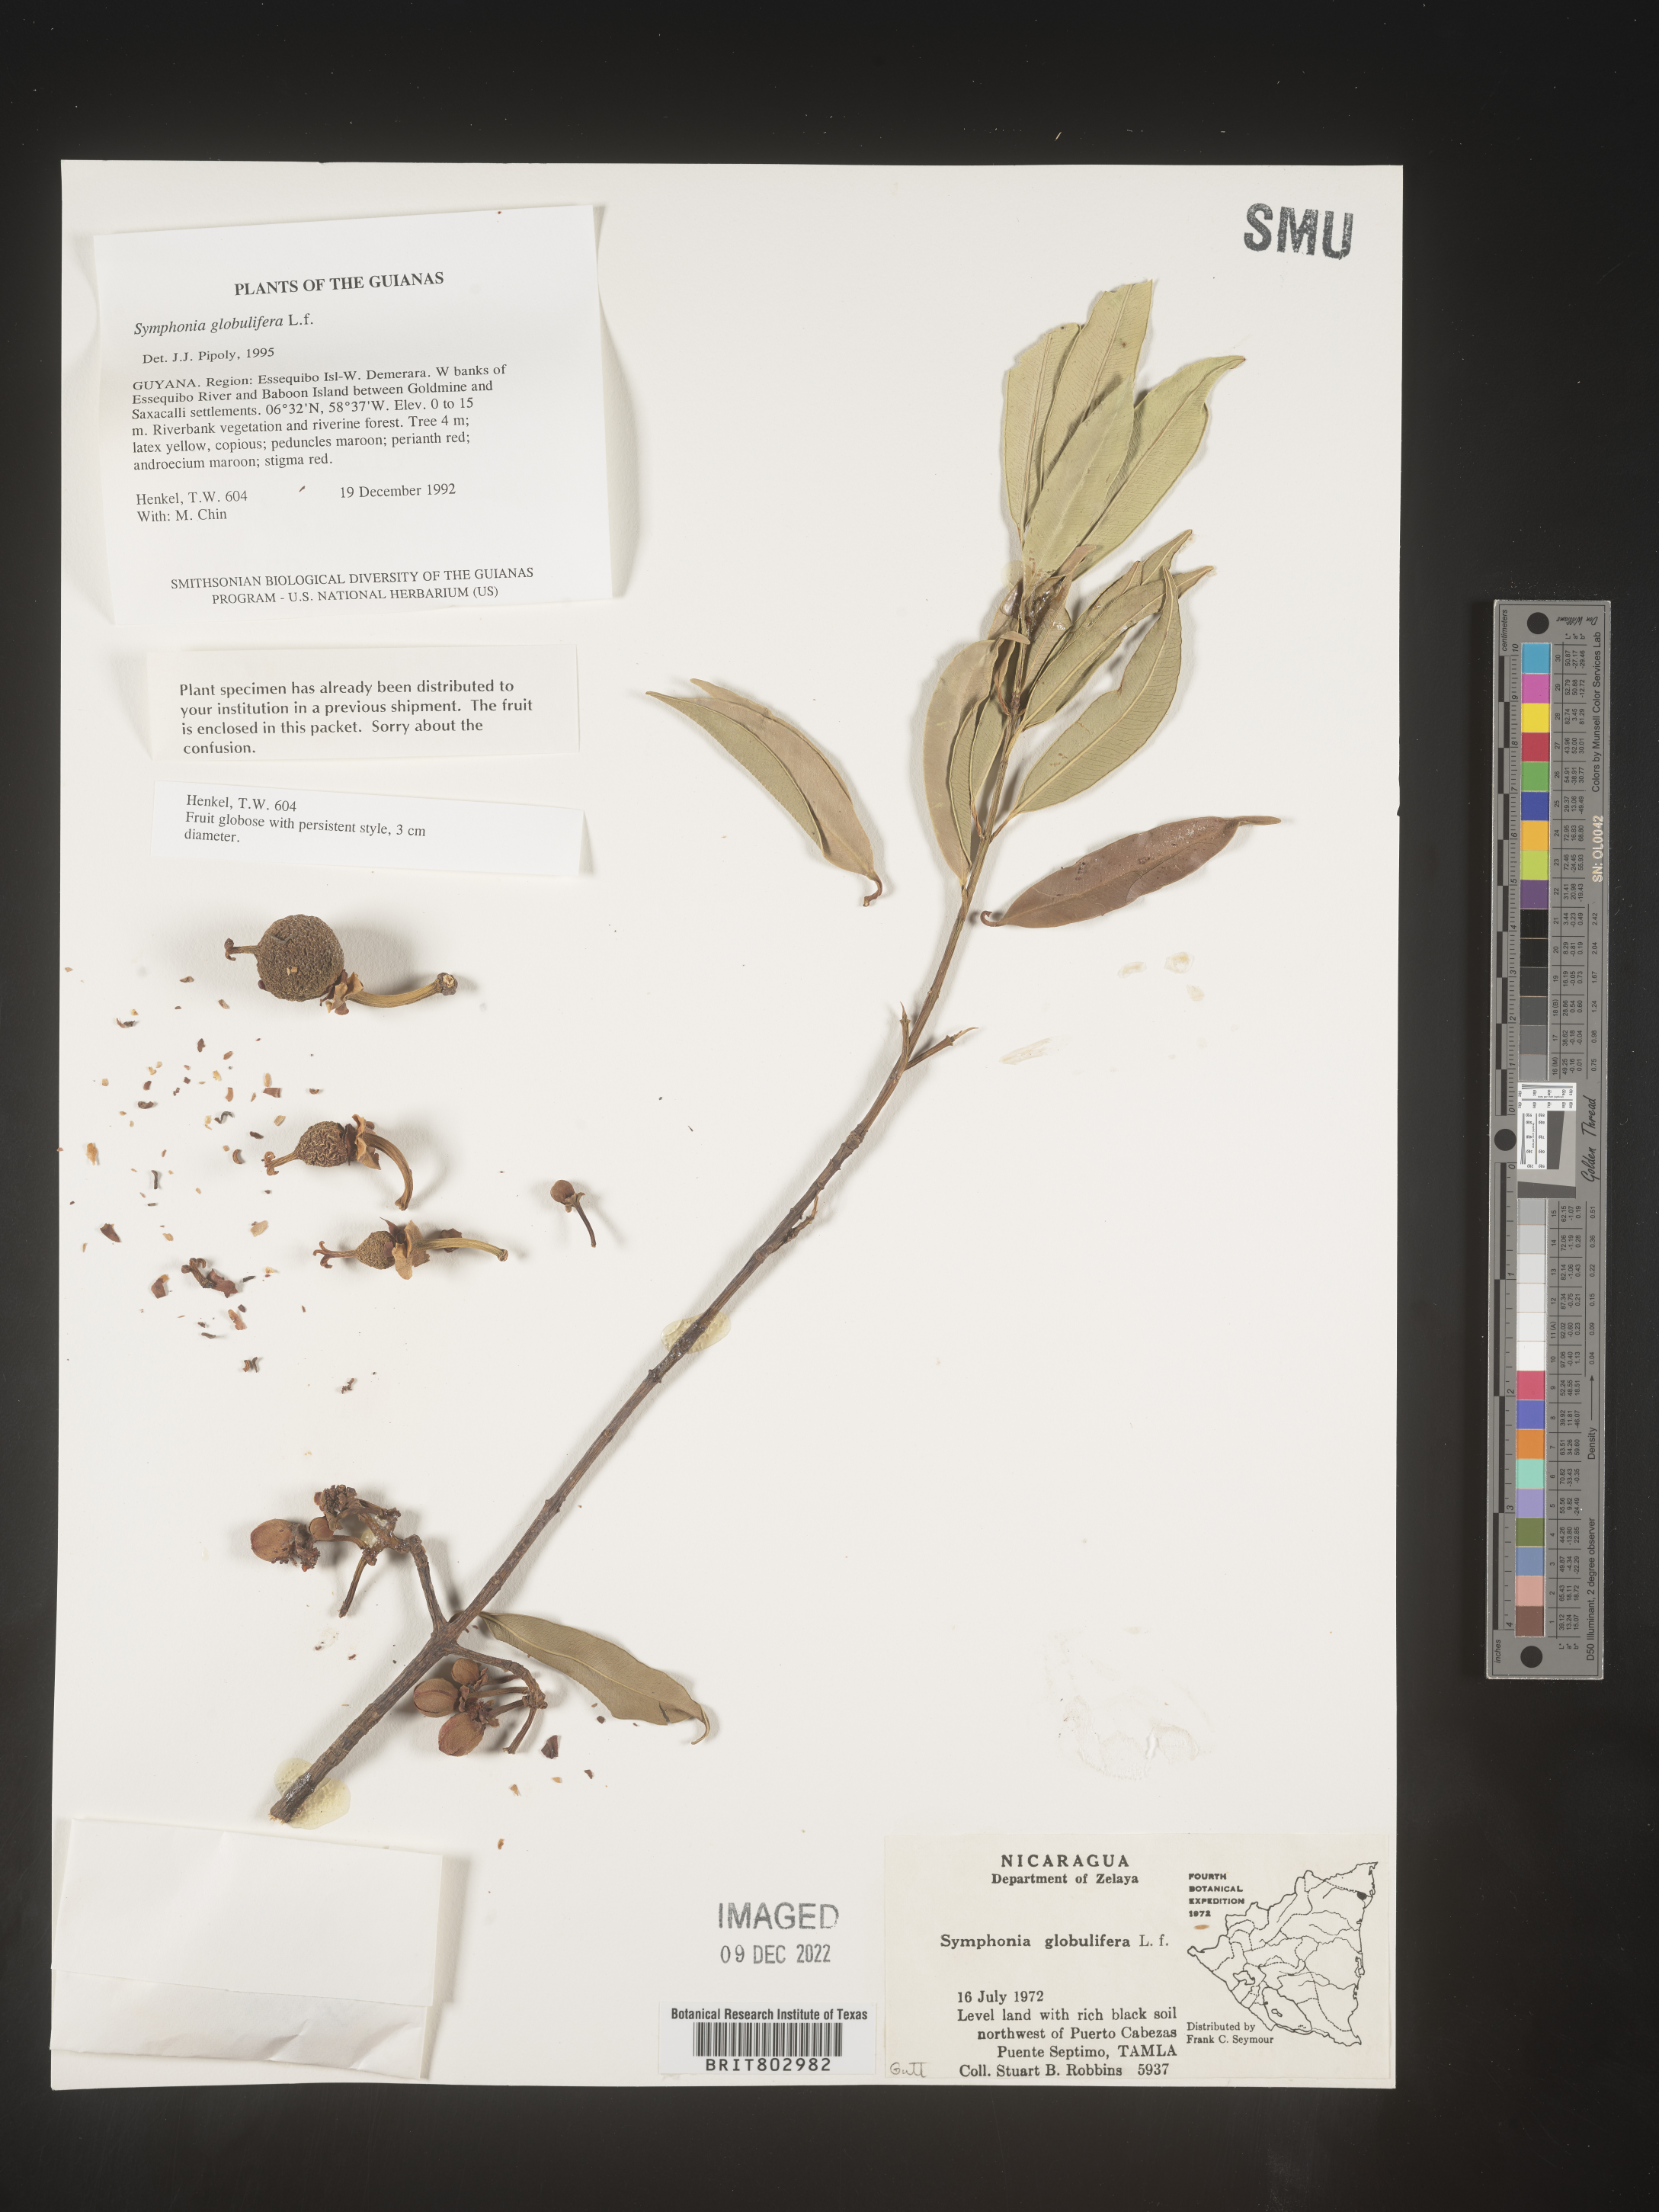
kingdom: Plantae
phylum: Tracheophyta
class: Magnoliopsida
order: Malpighiales
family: Clusiaceae
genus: Symphonia
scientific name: Symphonia globulifera
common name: Boarwood
